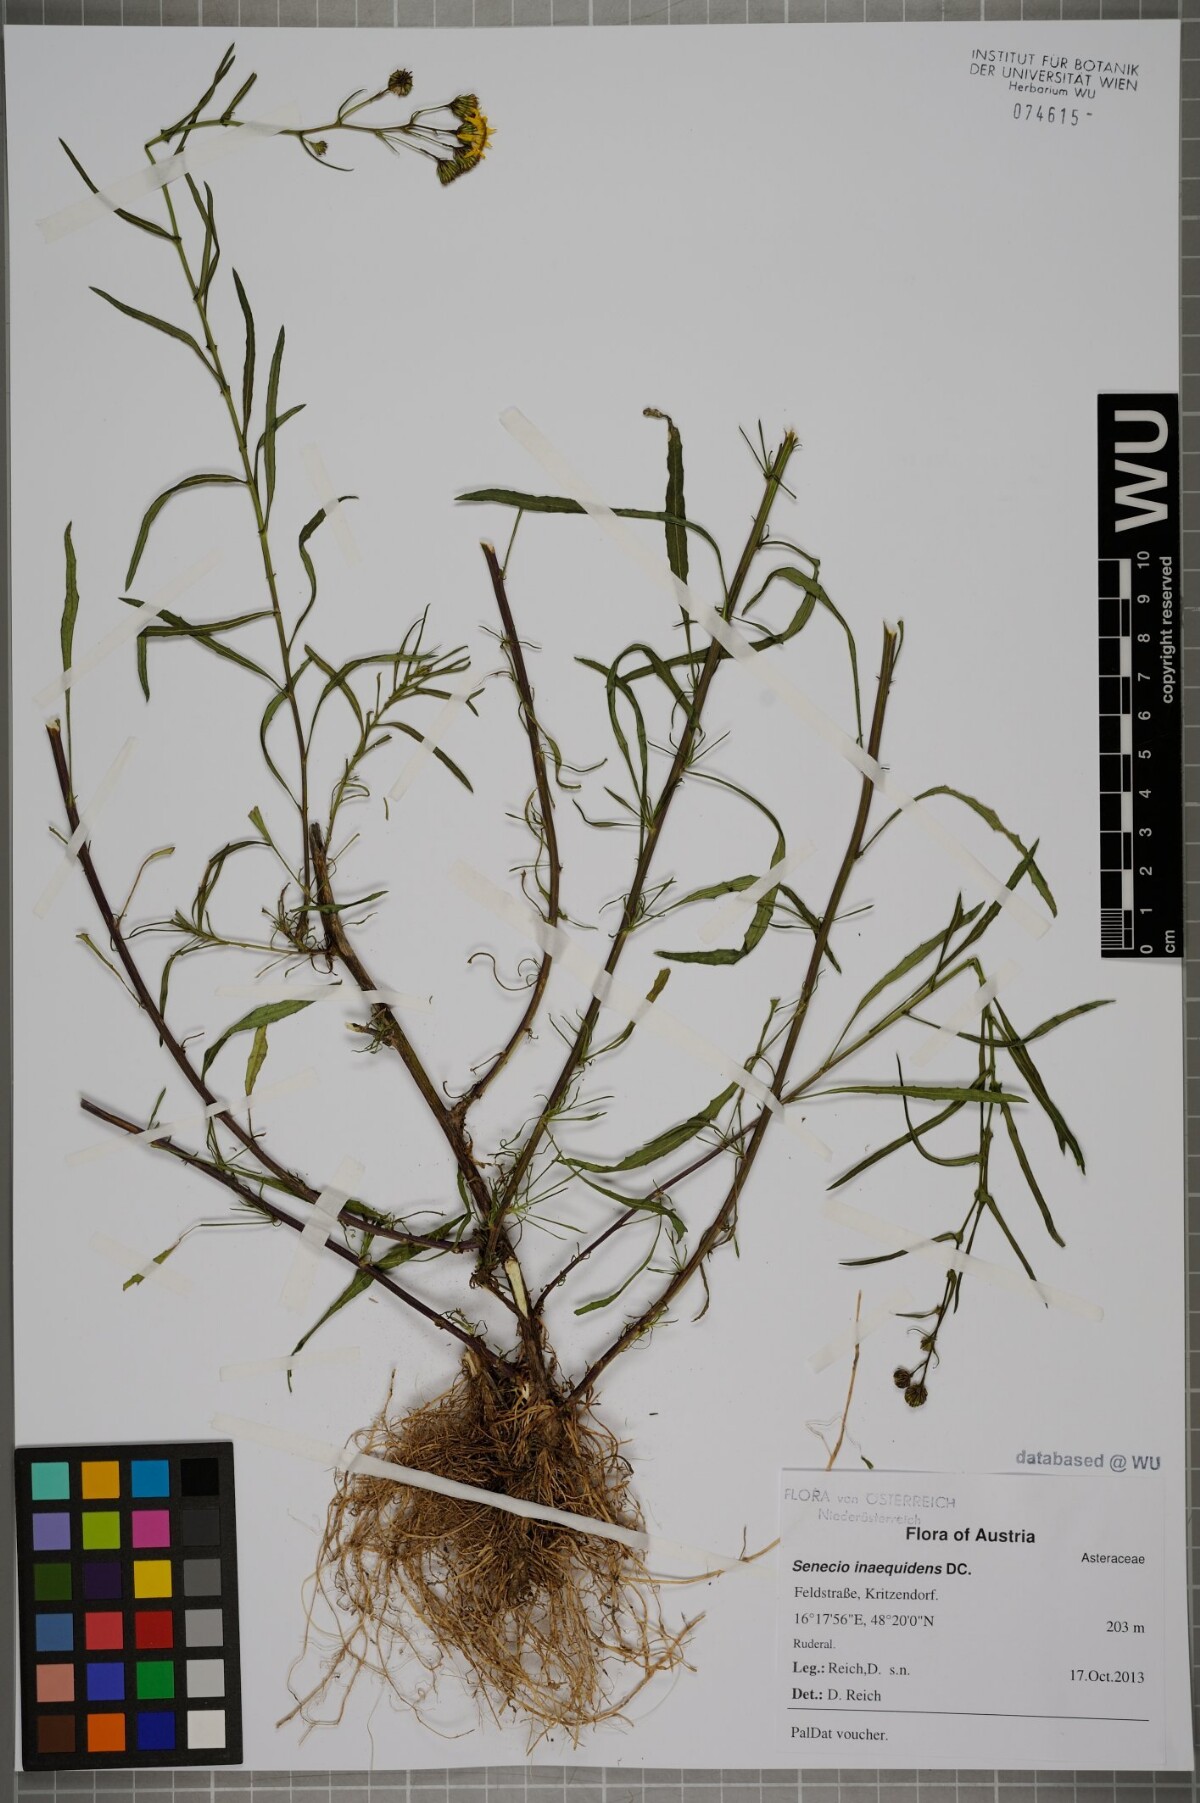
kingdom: Plantae
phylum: Tracheophyta
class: Magnoliopsida
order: Asterales
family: Asteraceae
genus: Senecio
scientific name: Senecio inaequidens
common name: Narrow-leaved ragwort
